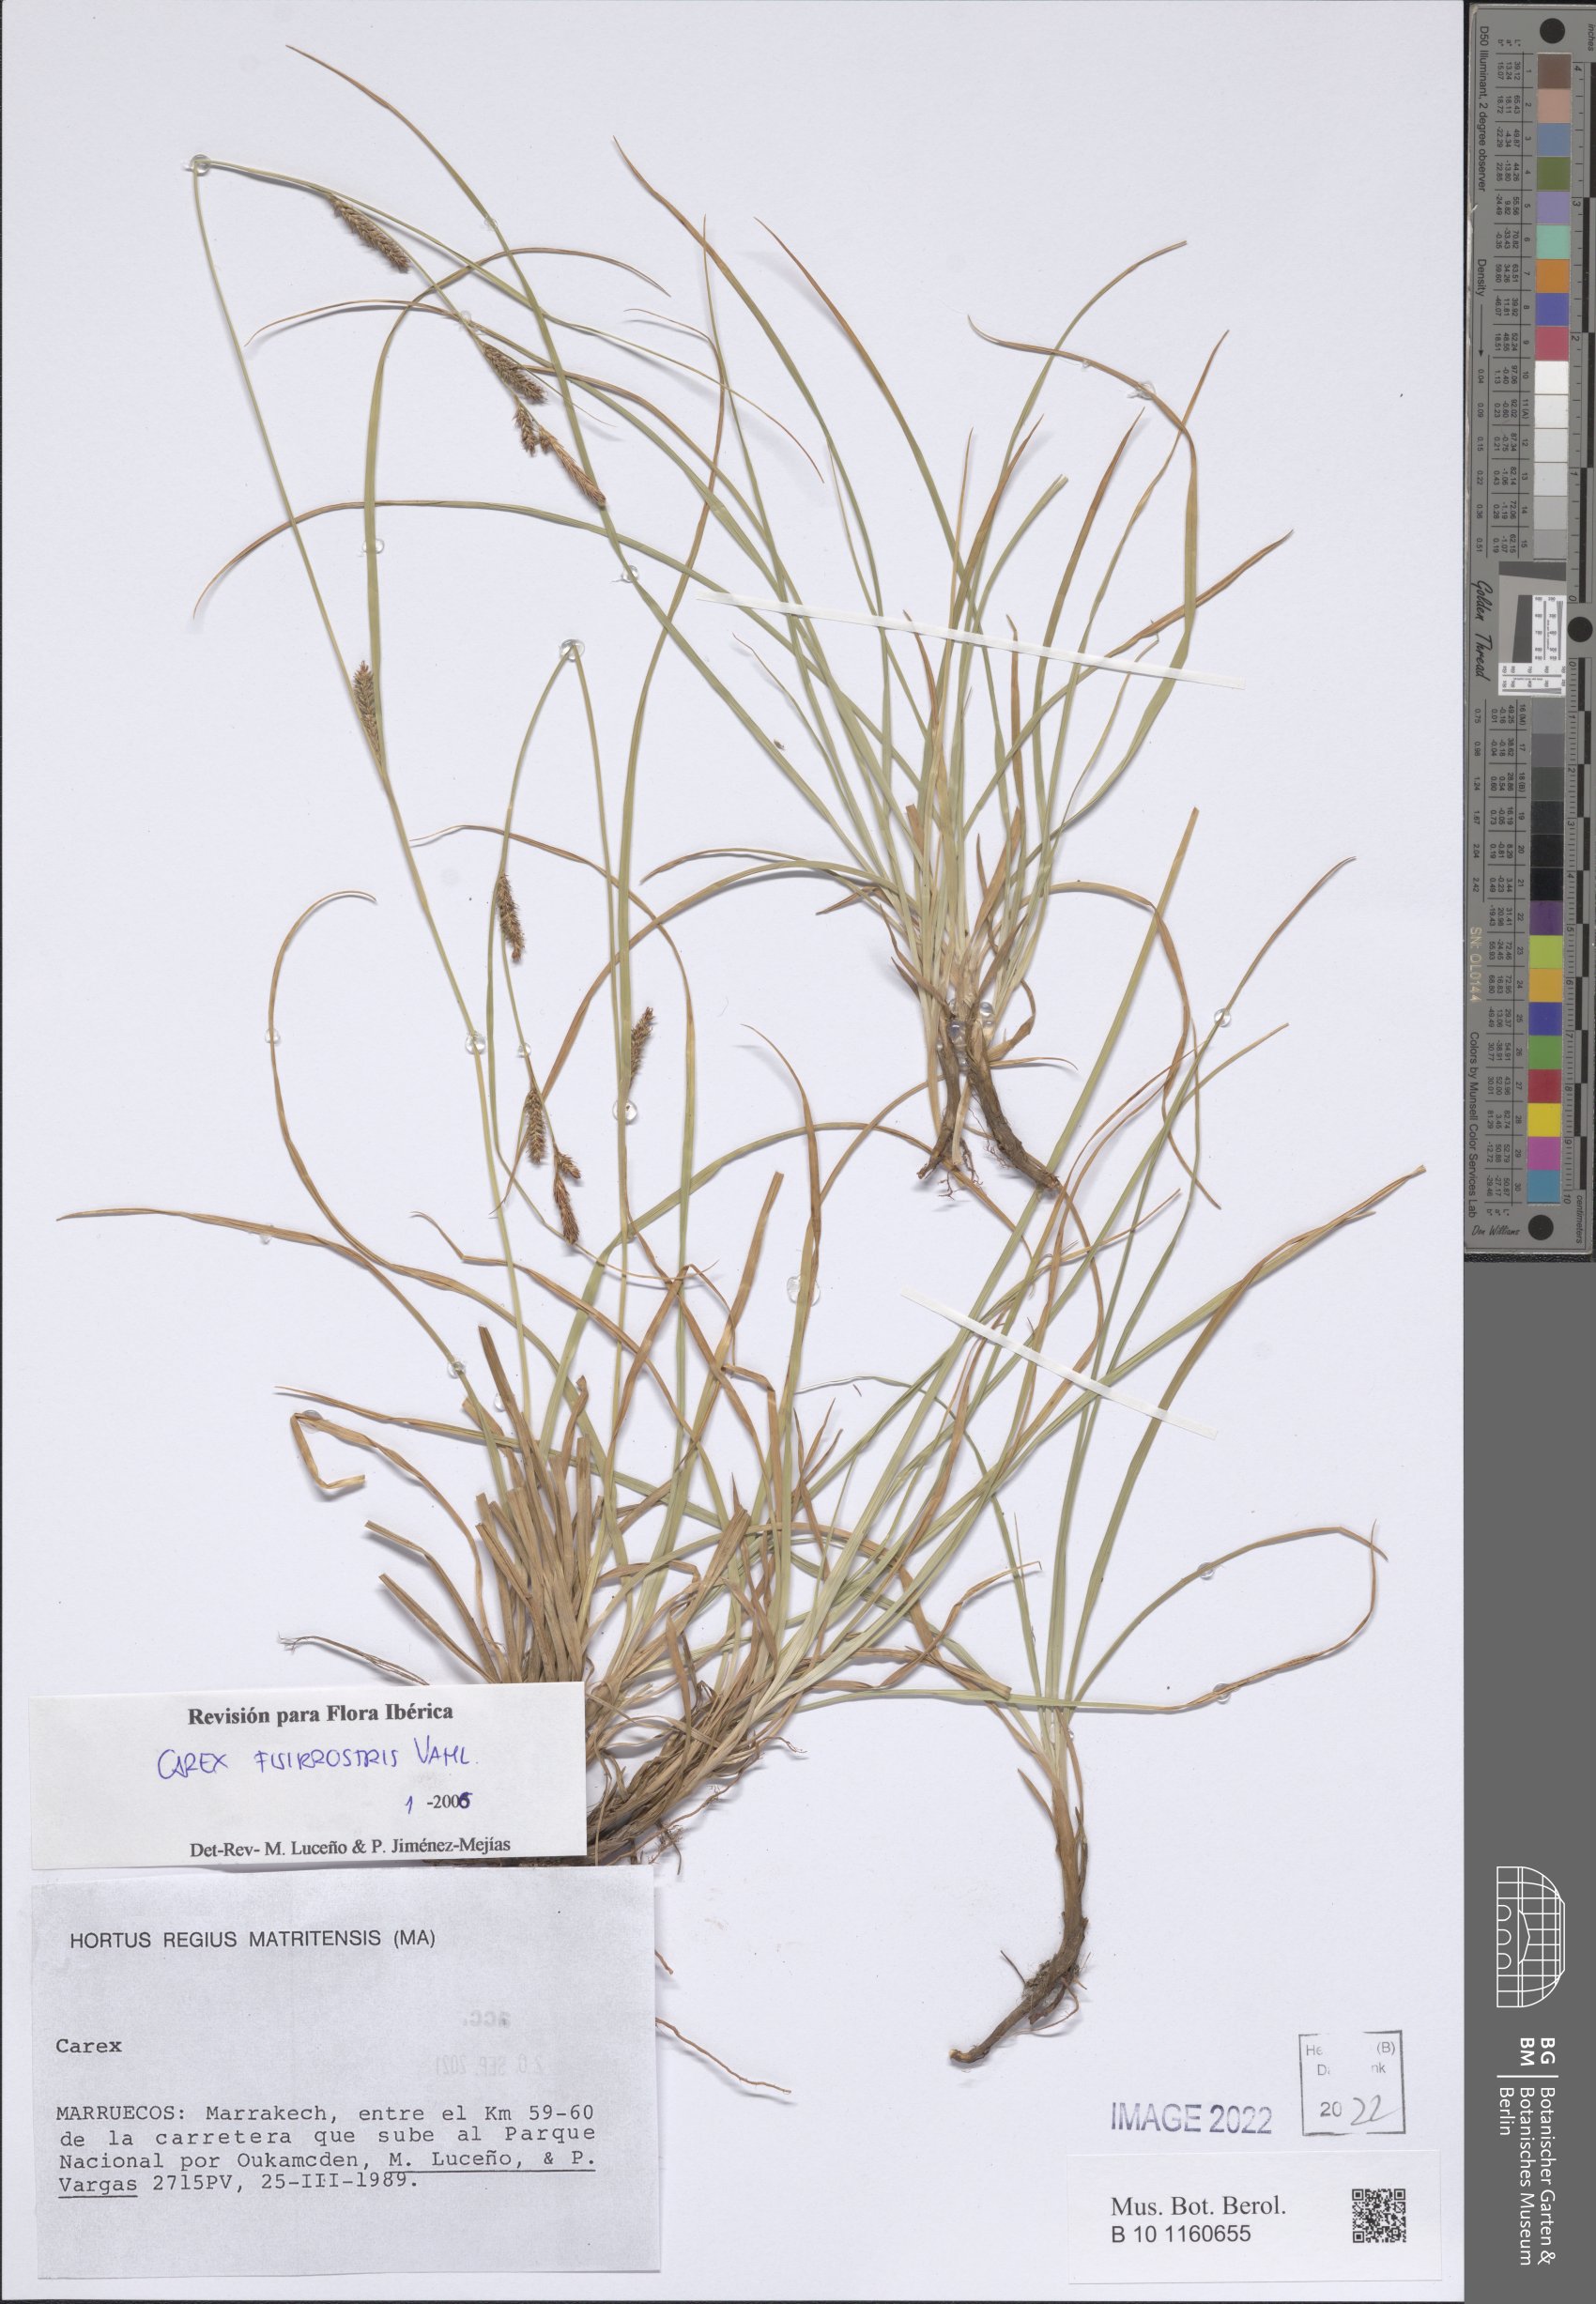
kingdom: Plantae
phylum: Tracheophyta
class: Liliopsida
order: Poales
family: Cyperaceae
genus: Carex
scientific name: Carex fissirostris
